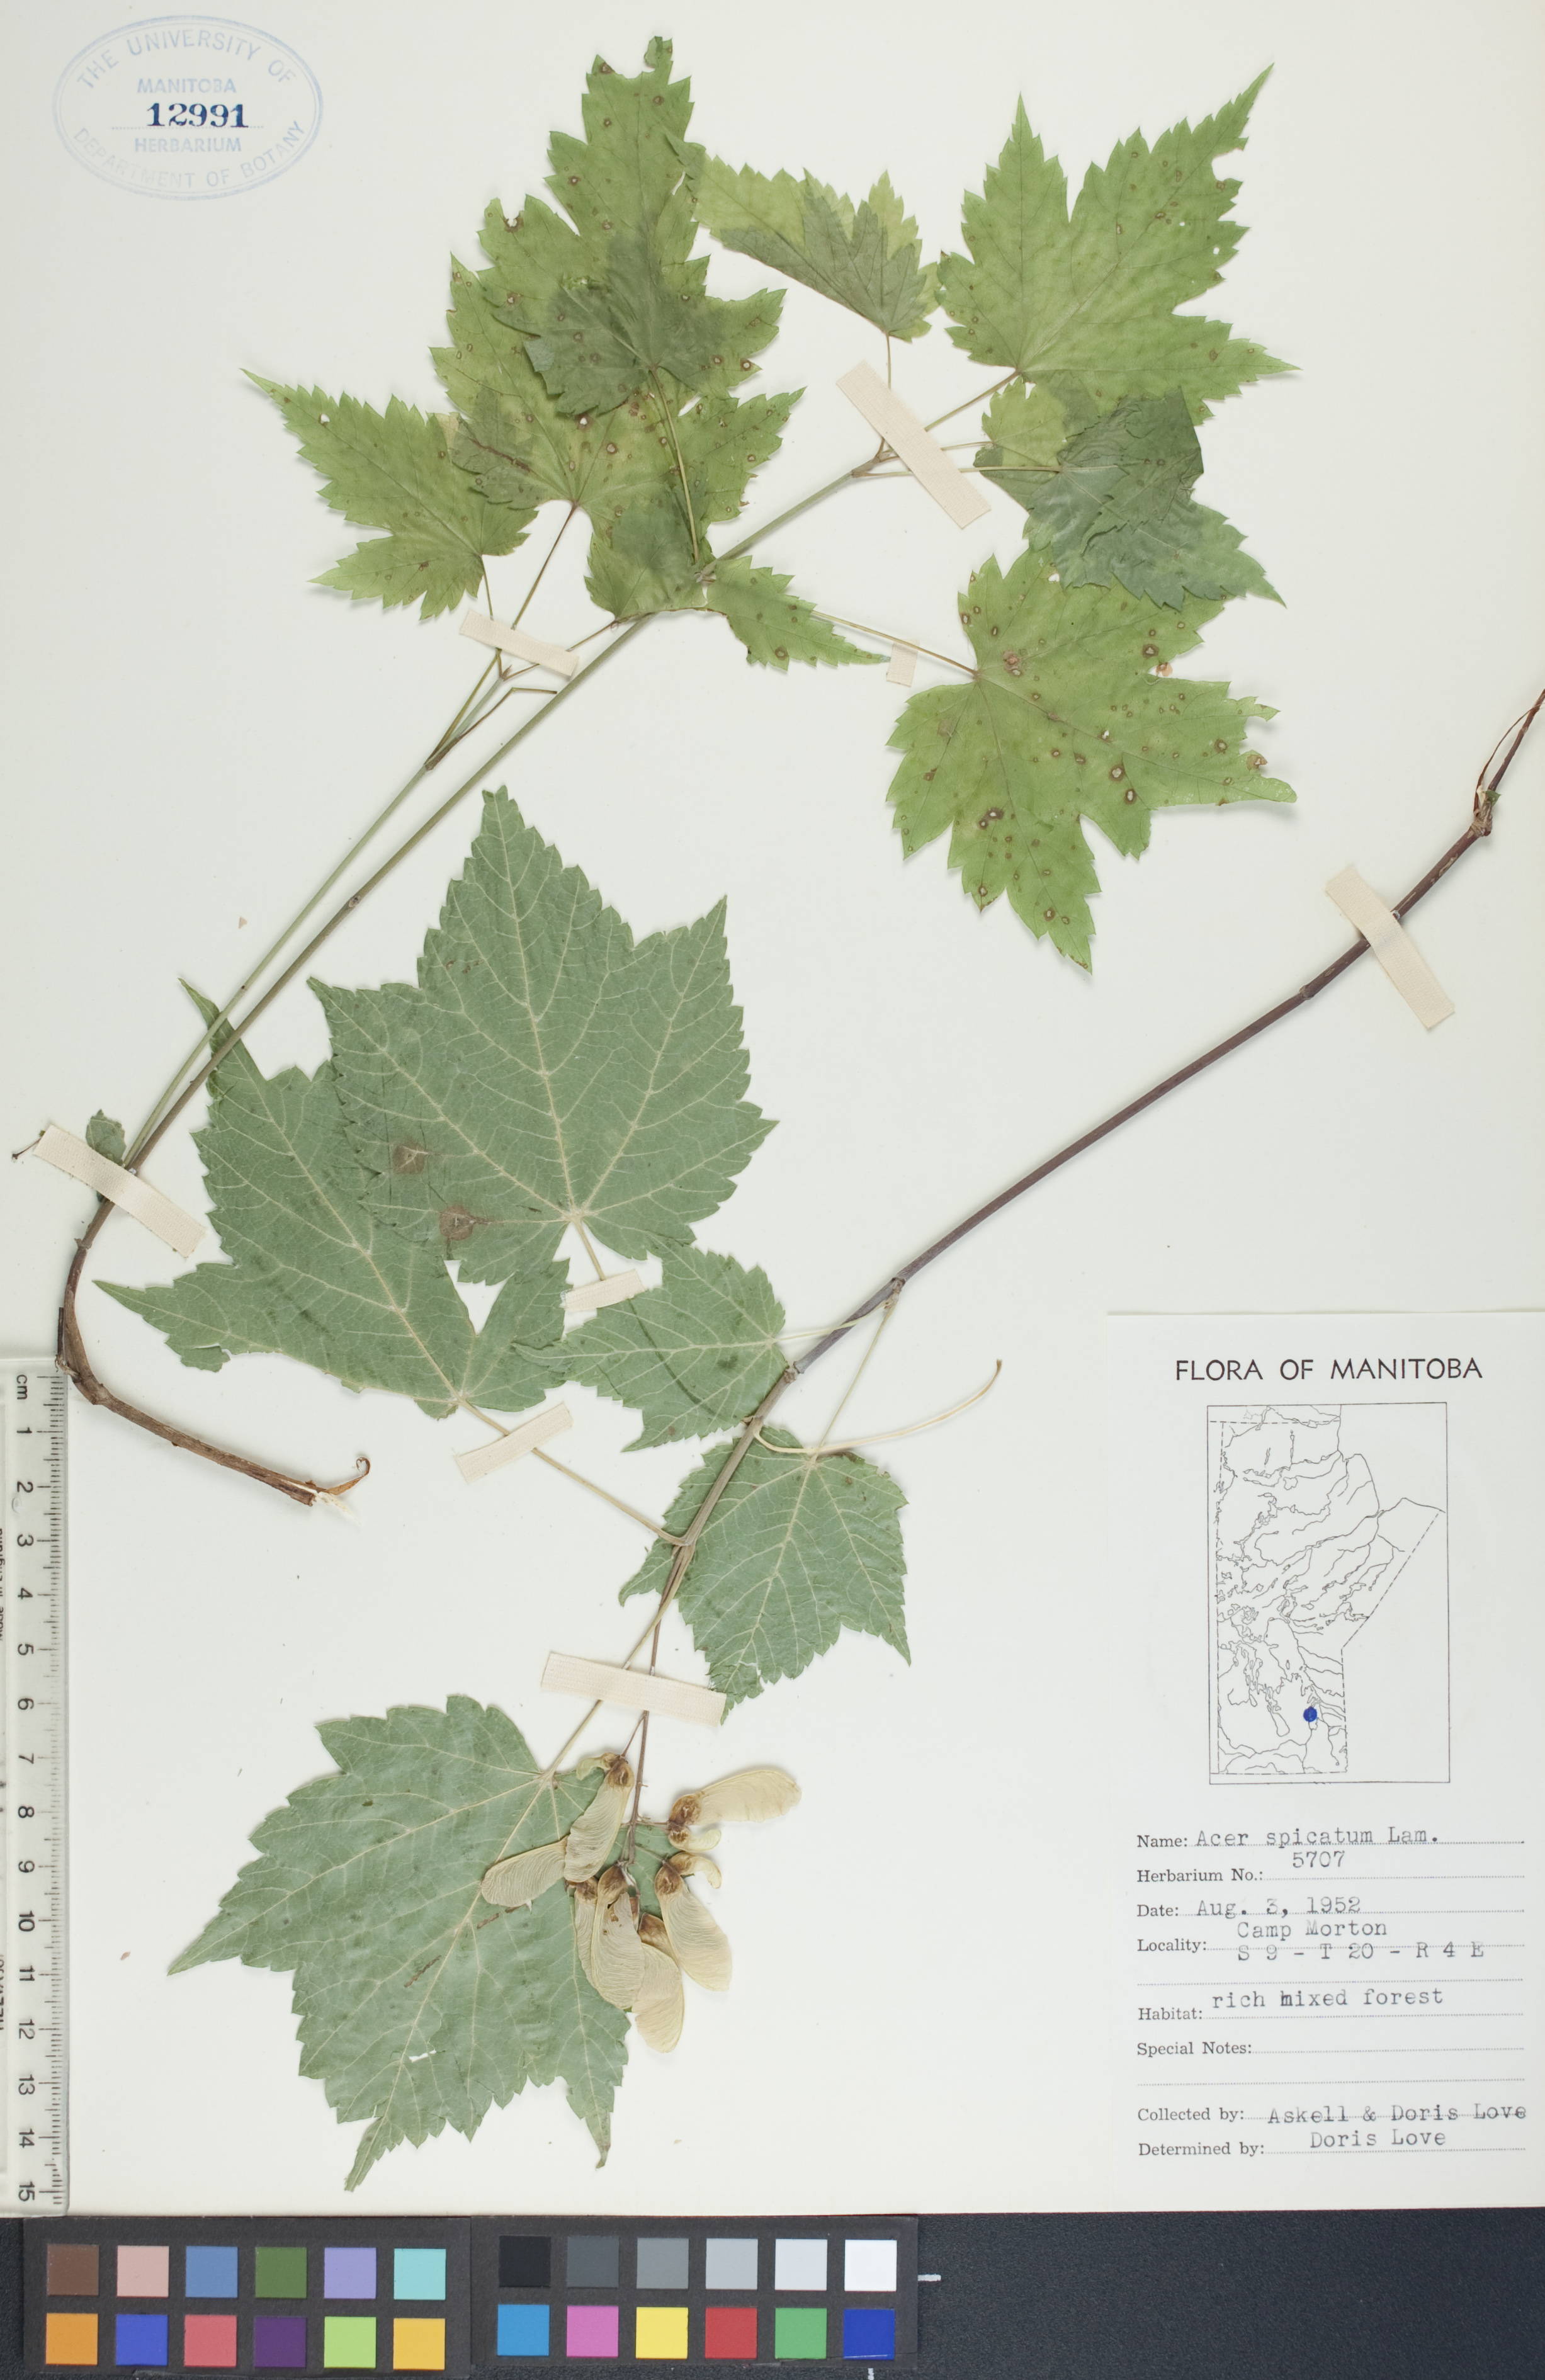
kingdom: Plantae
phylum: Tracheophyta
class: Magnoliopsida
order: Sapindales
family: Sapindaceae
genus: Acer
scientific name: Acer spicatum
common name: Mountain maple
